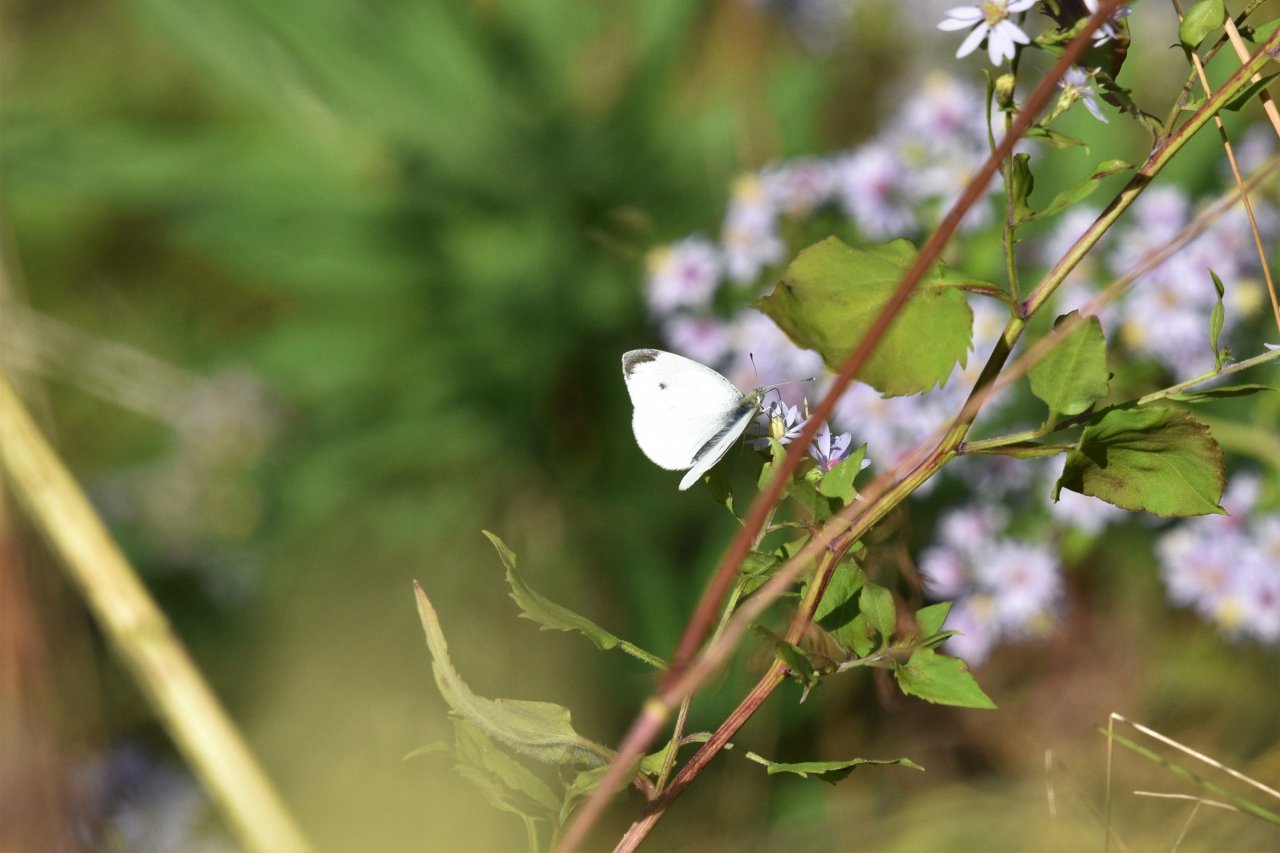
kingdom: Animalia
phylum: Arthropoda
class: Insecta
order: Lepidoptera
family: Pieridae
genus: Pieris
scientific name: Pieris rapae
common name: Cabbage White
